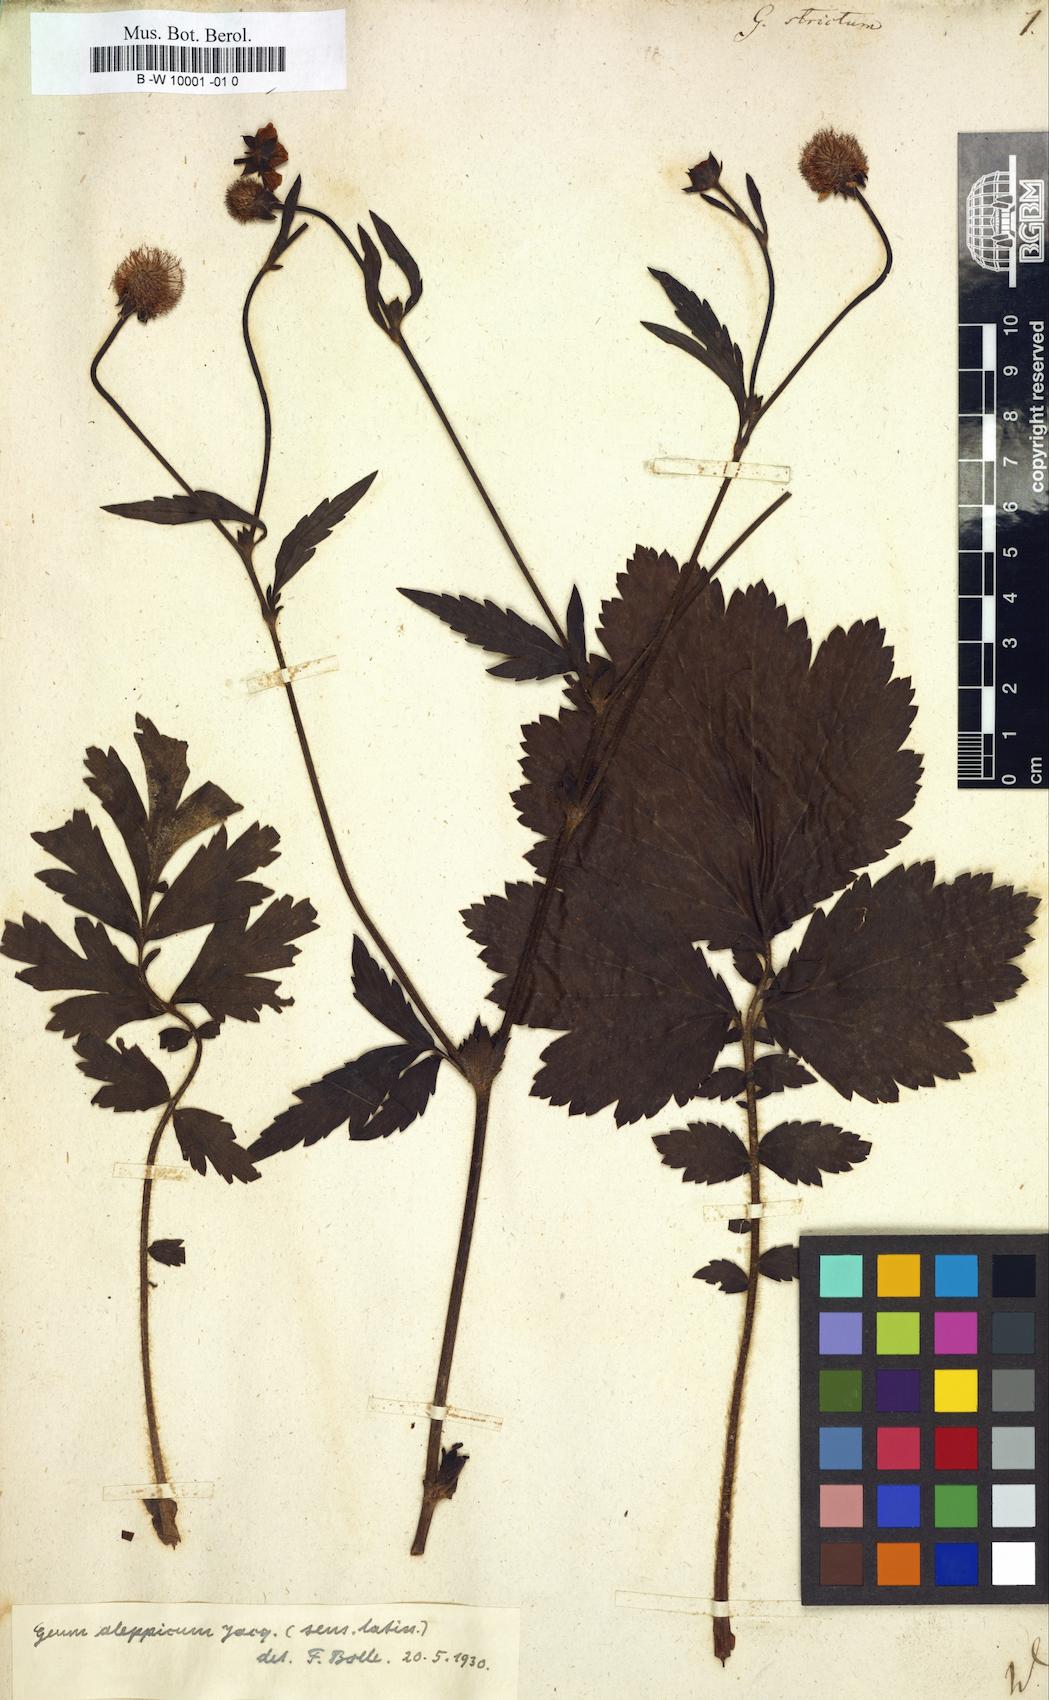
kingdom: Plantae
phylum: Tracheophyta
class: Magnoliopsida
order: Rosales
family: Rosaceae
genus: Geum
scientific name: Geum aleppicum
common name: Yellow avens
